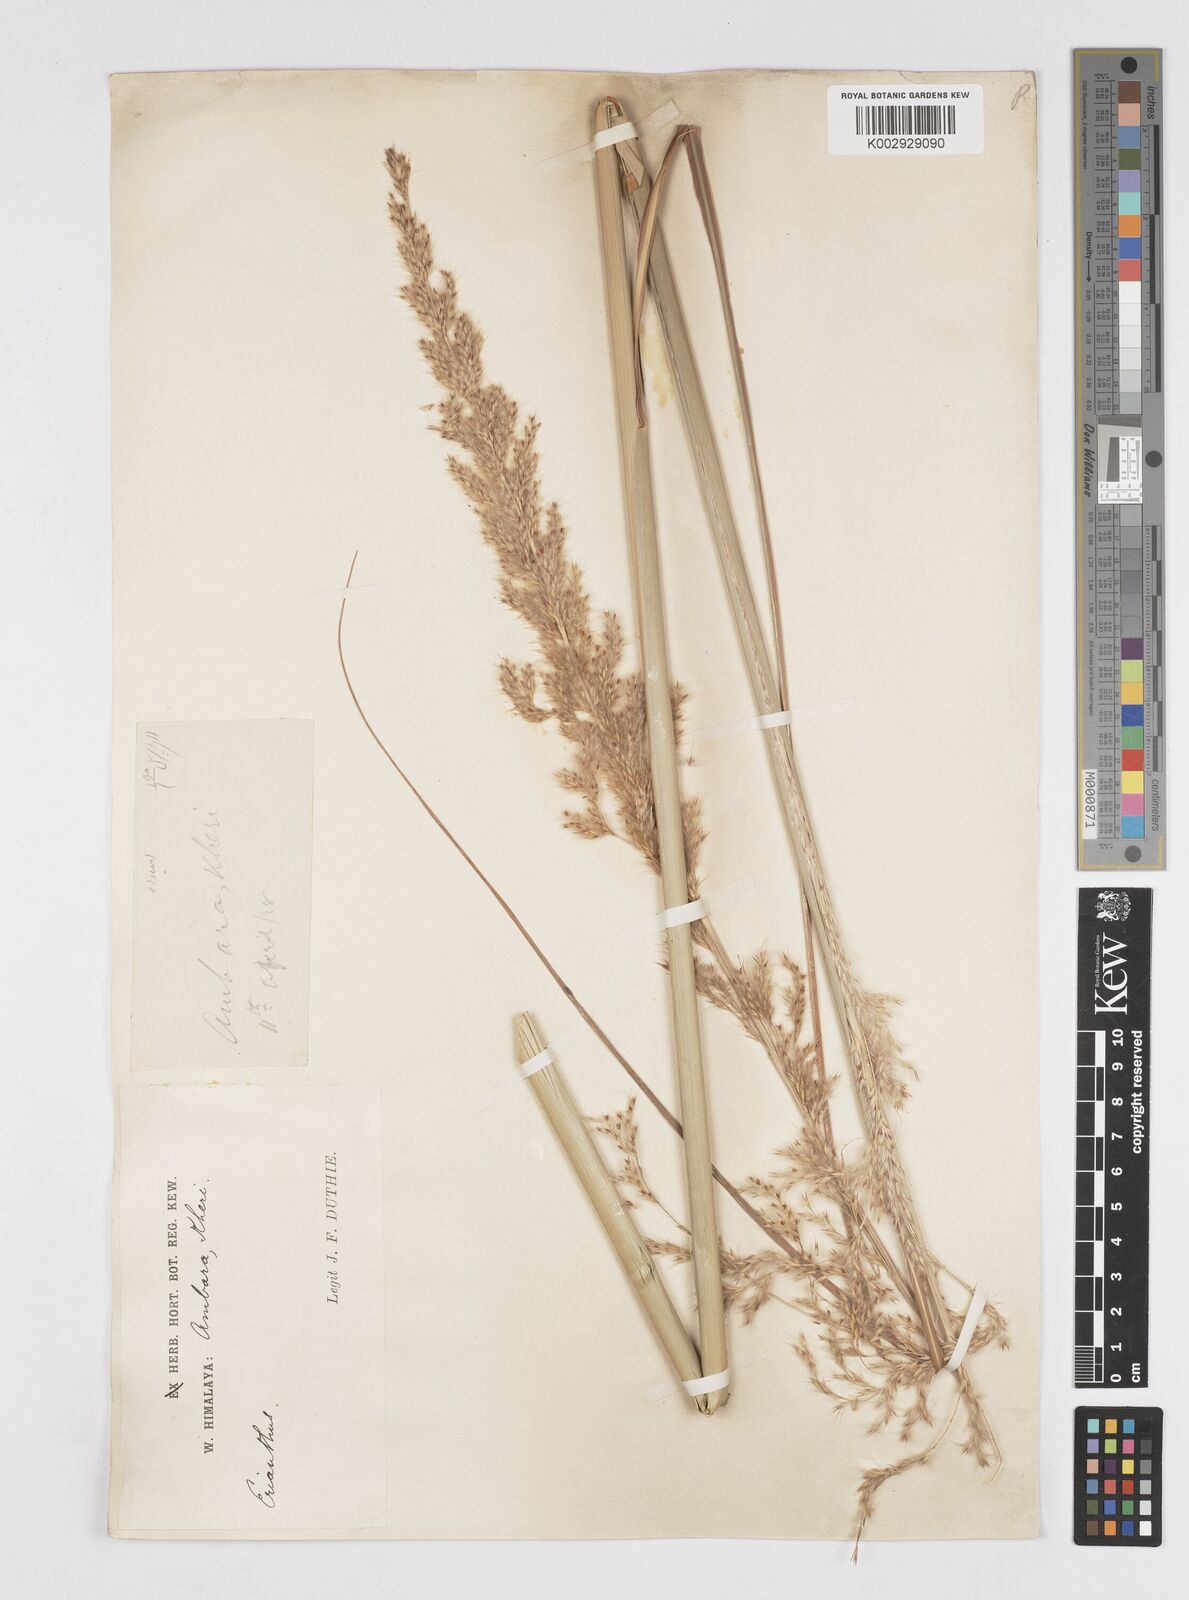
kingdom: Plantae
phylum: Tracheophyta
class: Liliopsida
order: Poales
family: Poaceae
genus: Tripidium
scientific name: Tripidium bengalense
